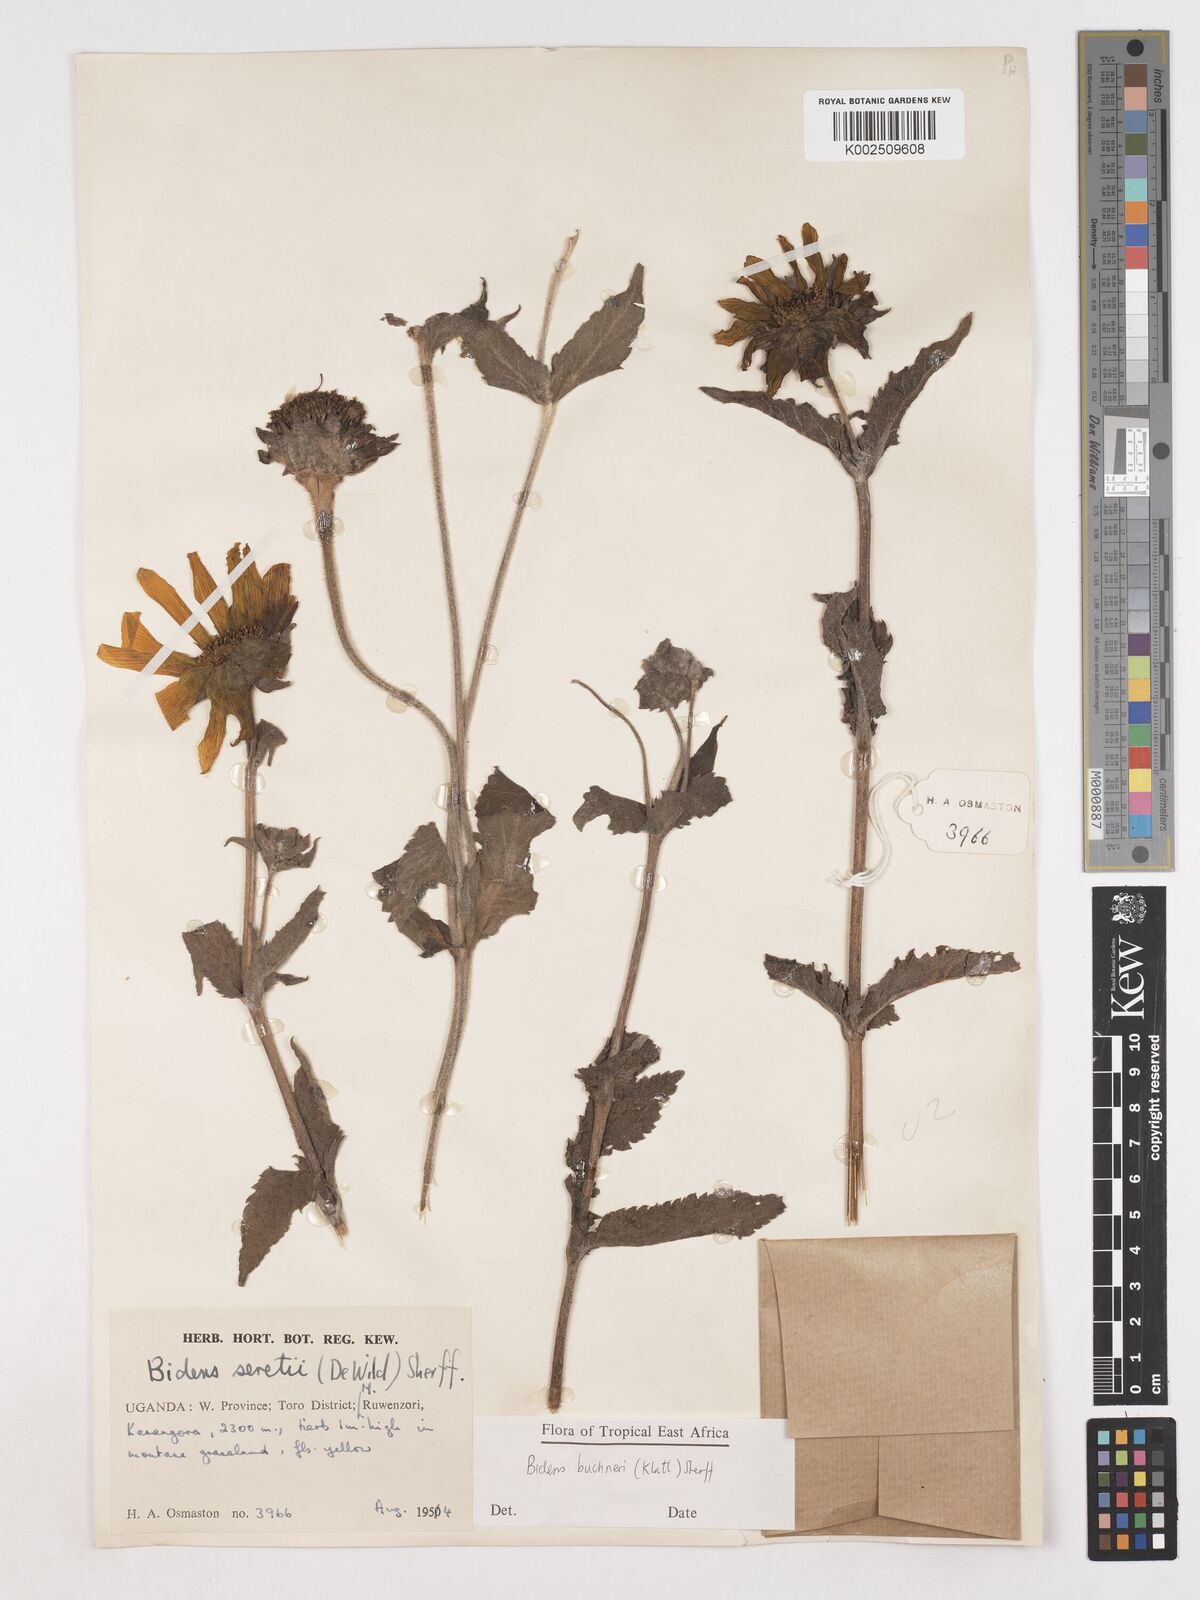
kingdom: Plantae
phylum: Tracheophyta
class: Magnoliopsida
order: Asterales
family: Asteraceae
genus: Bidens
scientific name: Bidens buchneri
